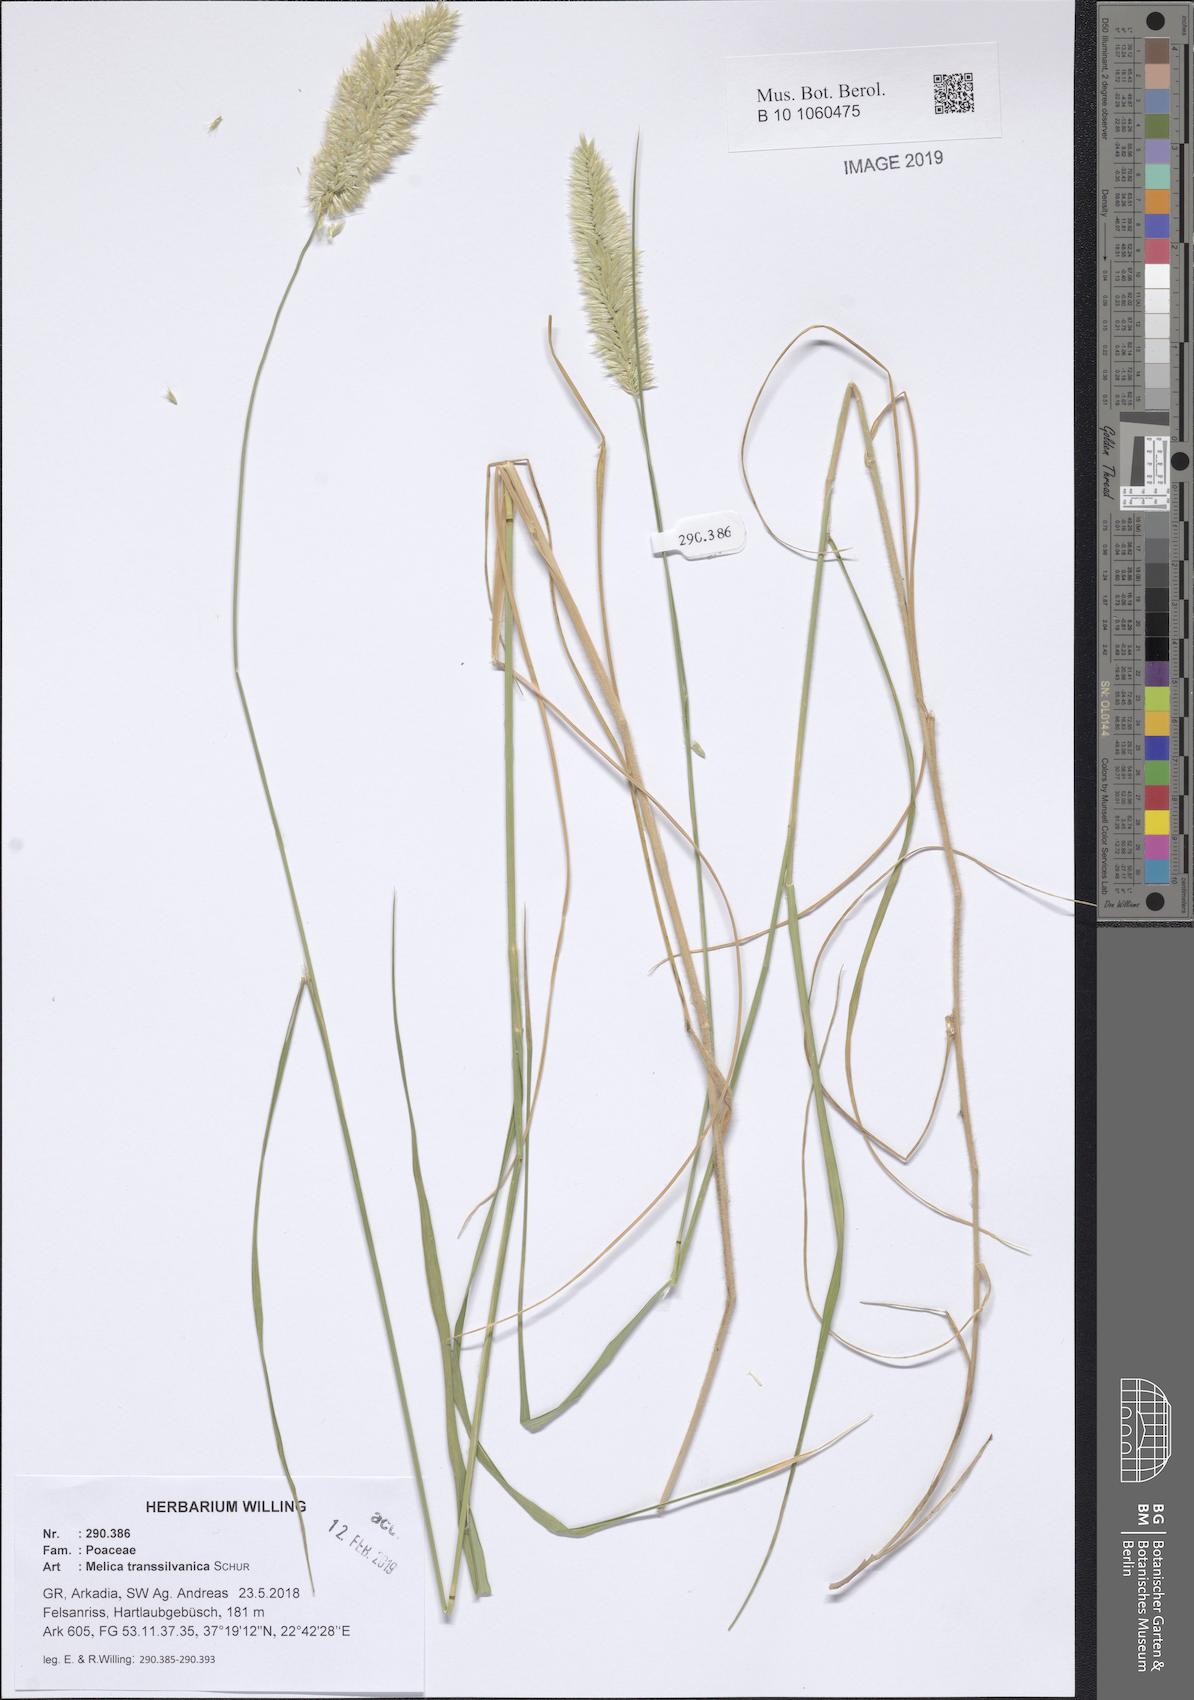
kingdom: Plantae
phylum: Tracheophyta
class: Liliopsida
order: Poales
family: Poaceae
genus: Melica
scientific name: Melica transsilvanica
